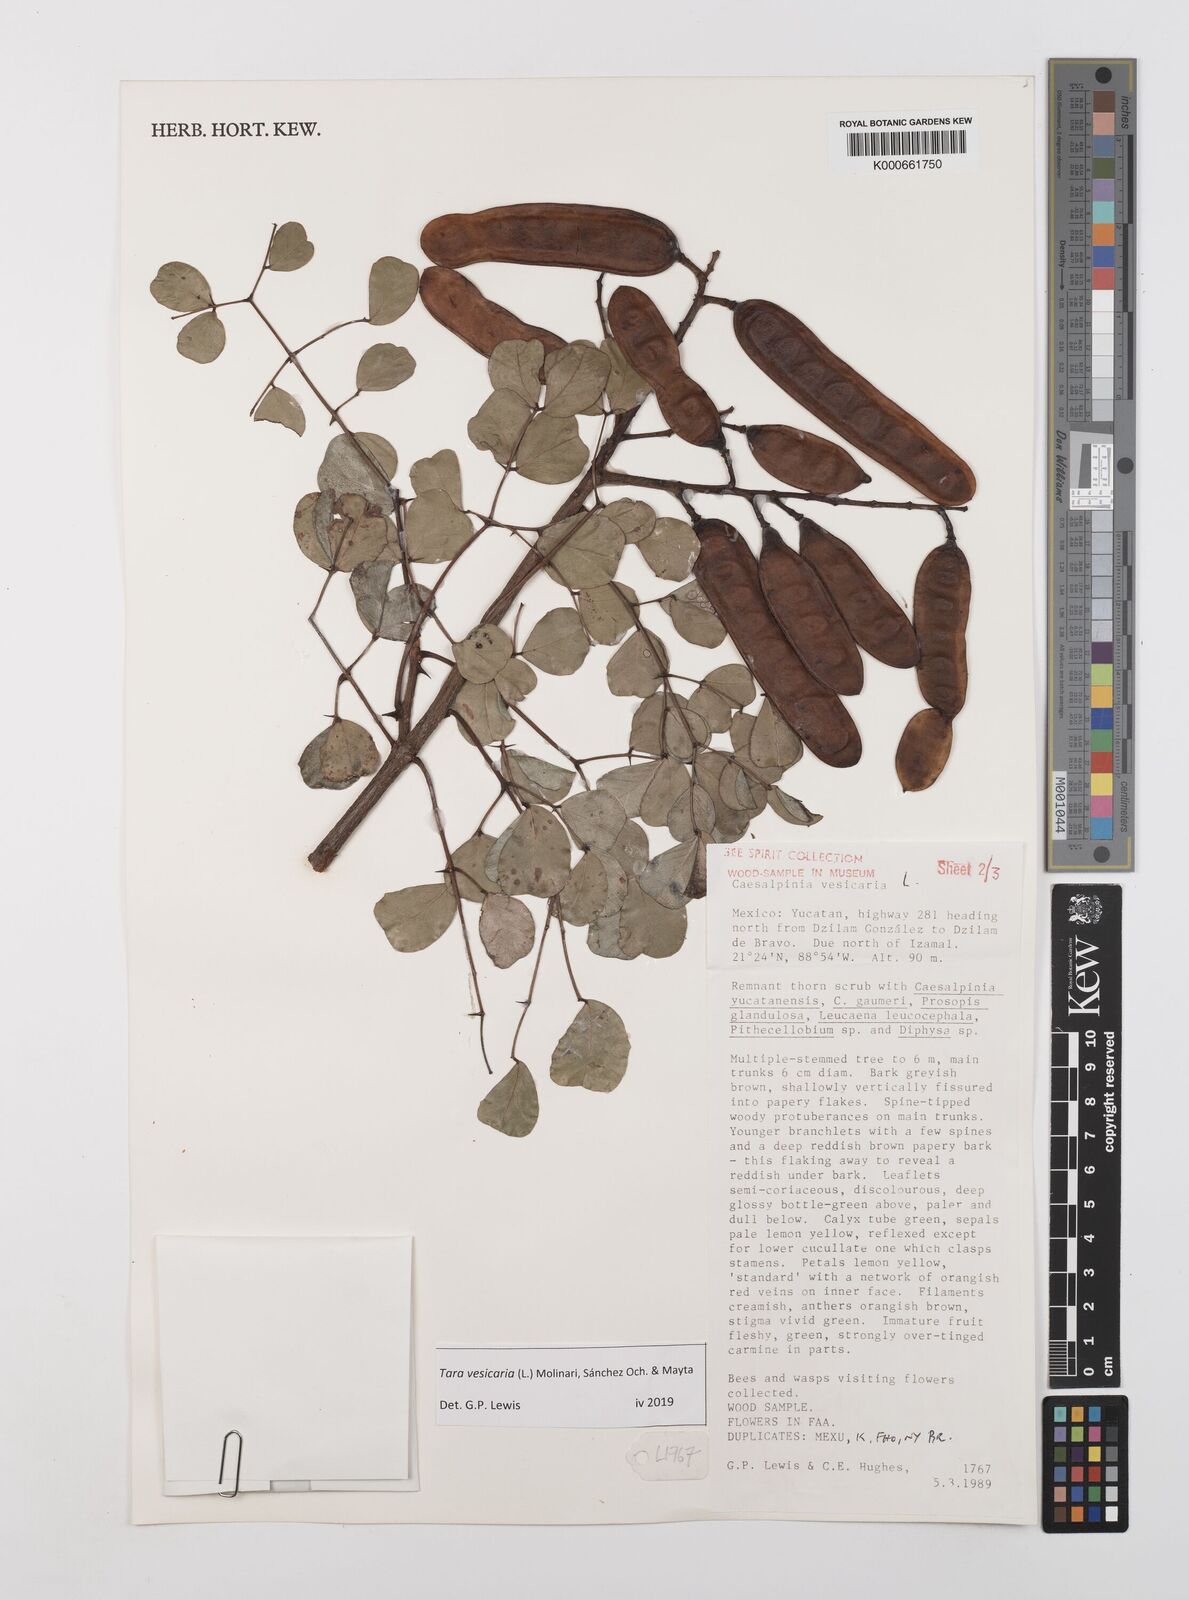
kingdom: Plantae
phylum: Tracheophyta
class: Magnoliopsida
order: Fabales
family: Fabaceae
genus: Tara
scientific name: Tara vesicaria
